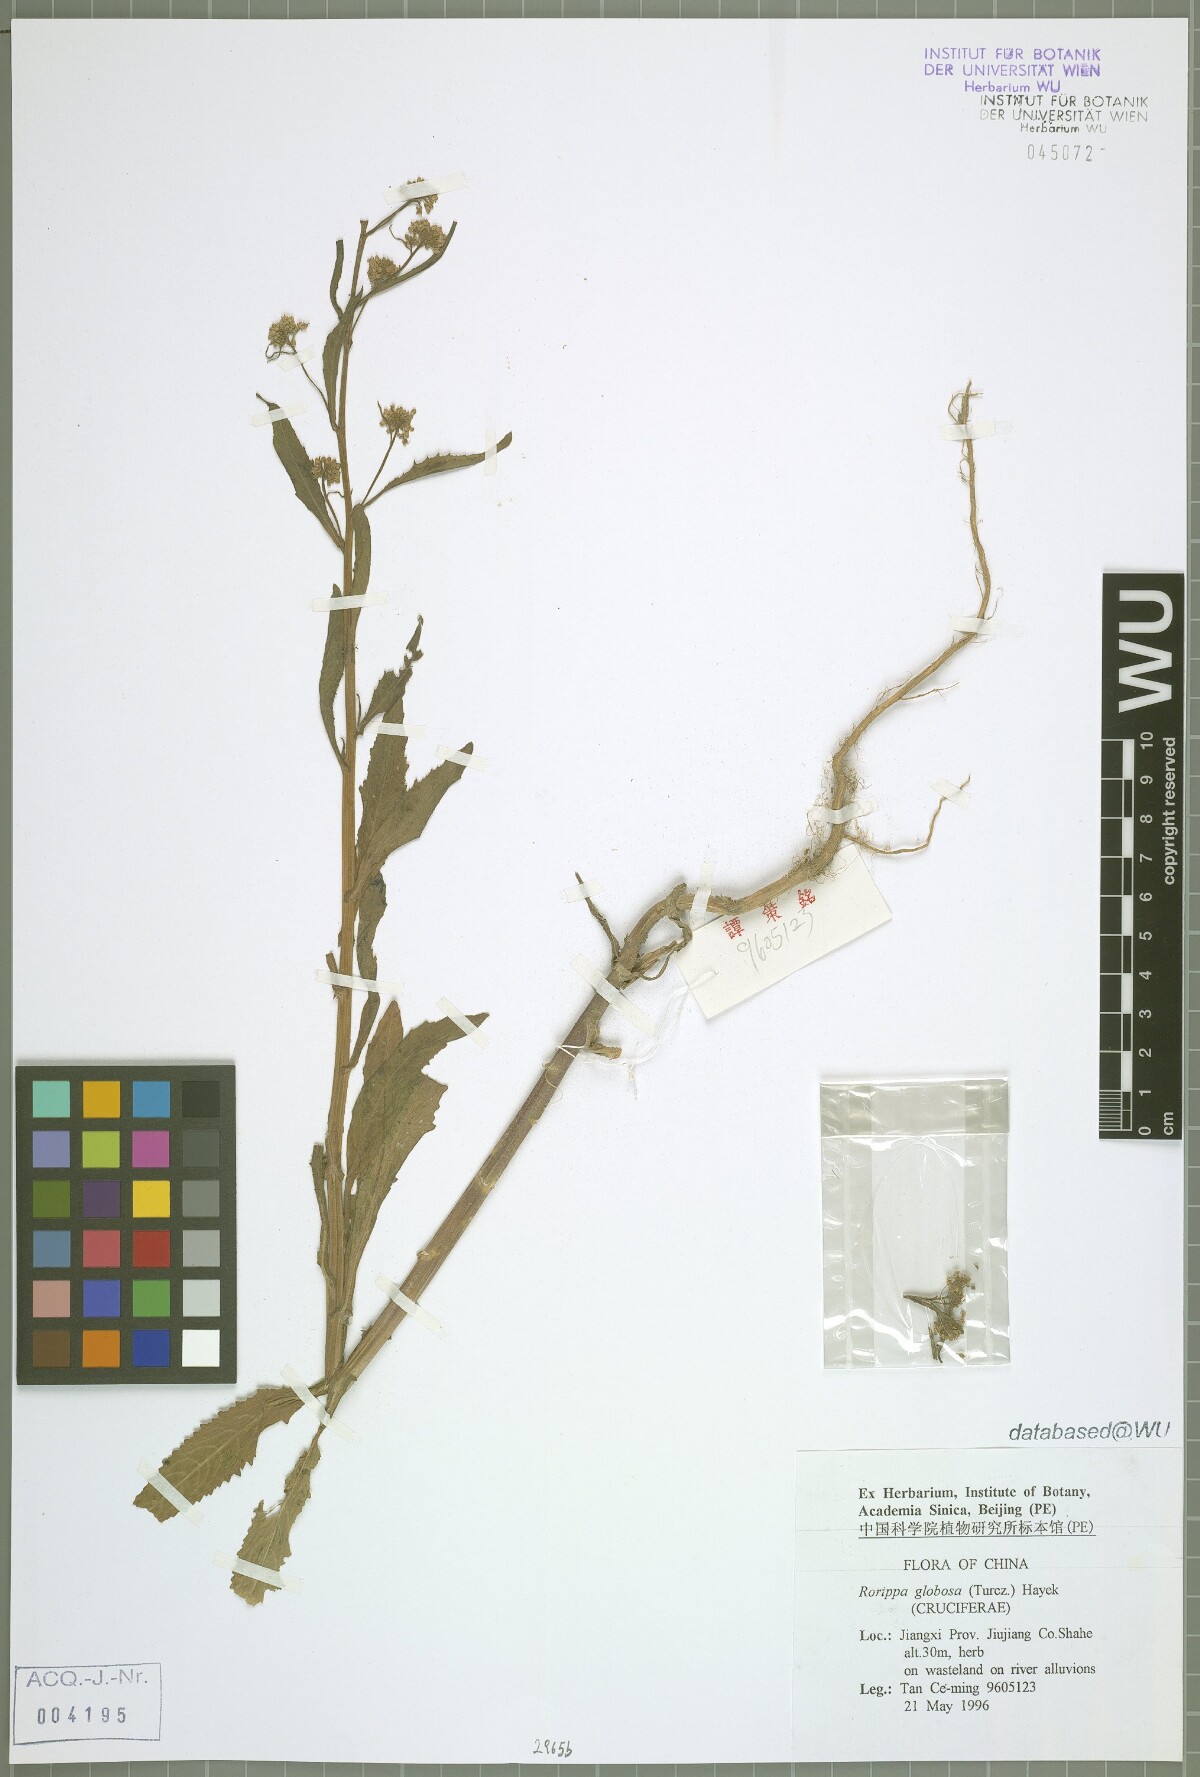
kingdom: Plantae
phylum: Tracheophyta
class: Magnoliopsida
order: Brassicales
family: Brassicaceae
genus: Rorippa
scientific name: Rorippa globosa
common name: Globe yellowcress
